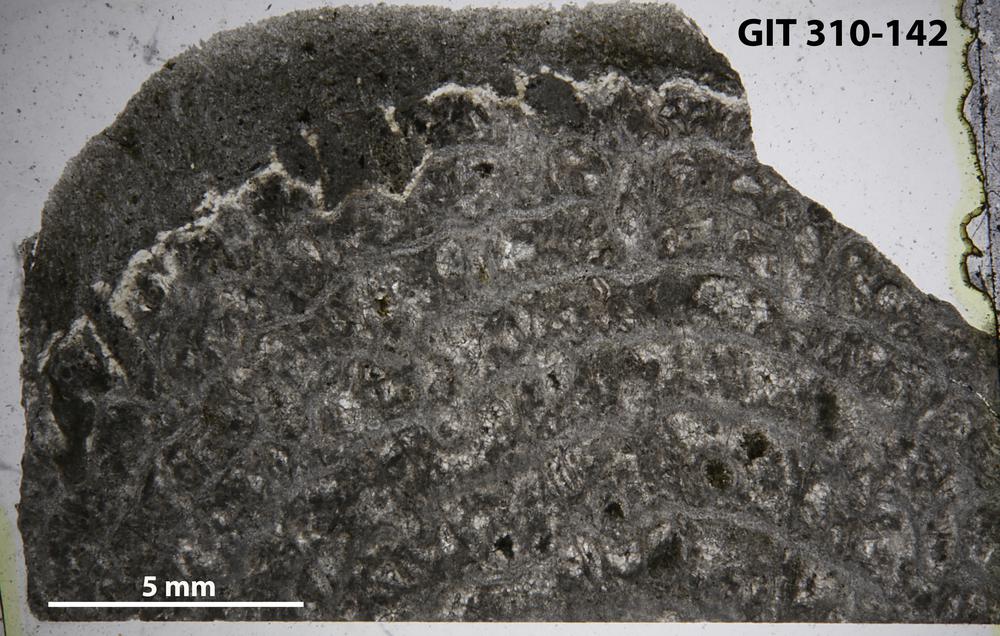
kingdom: Animalia
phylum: Porifera
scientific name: Porifera
